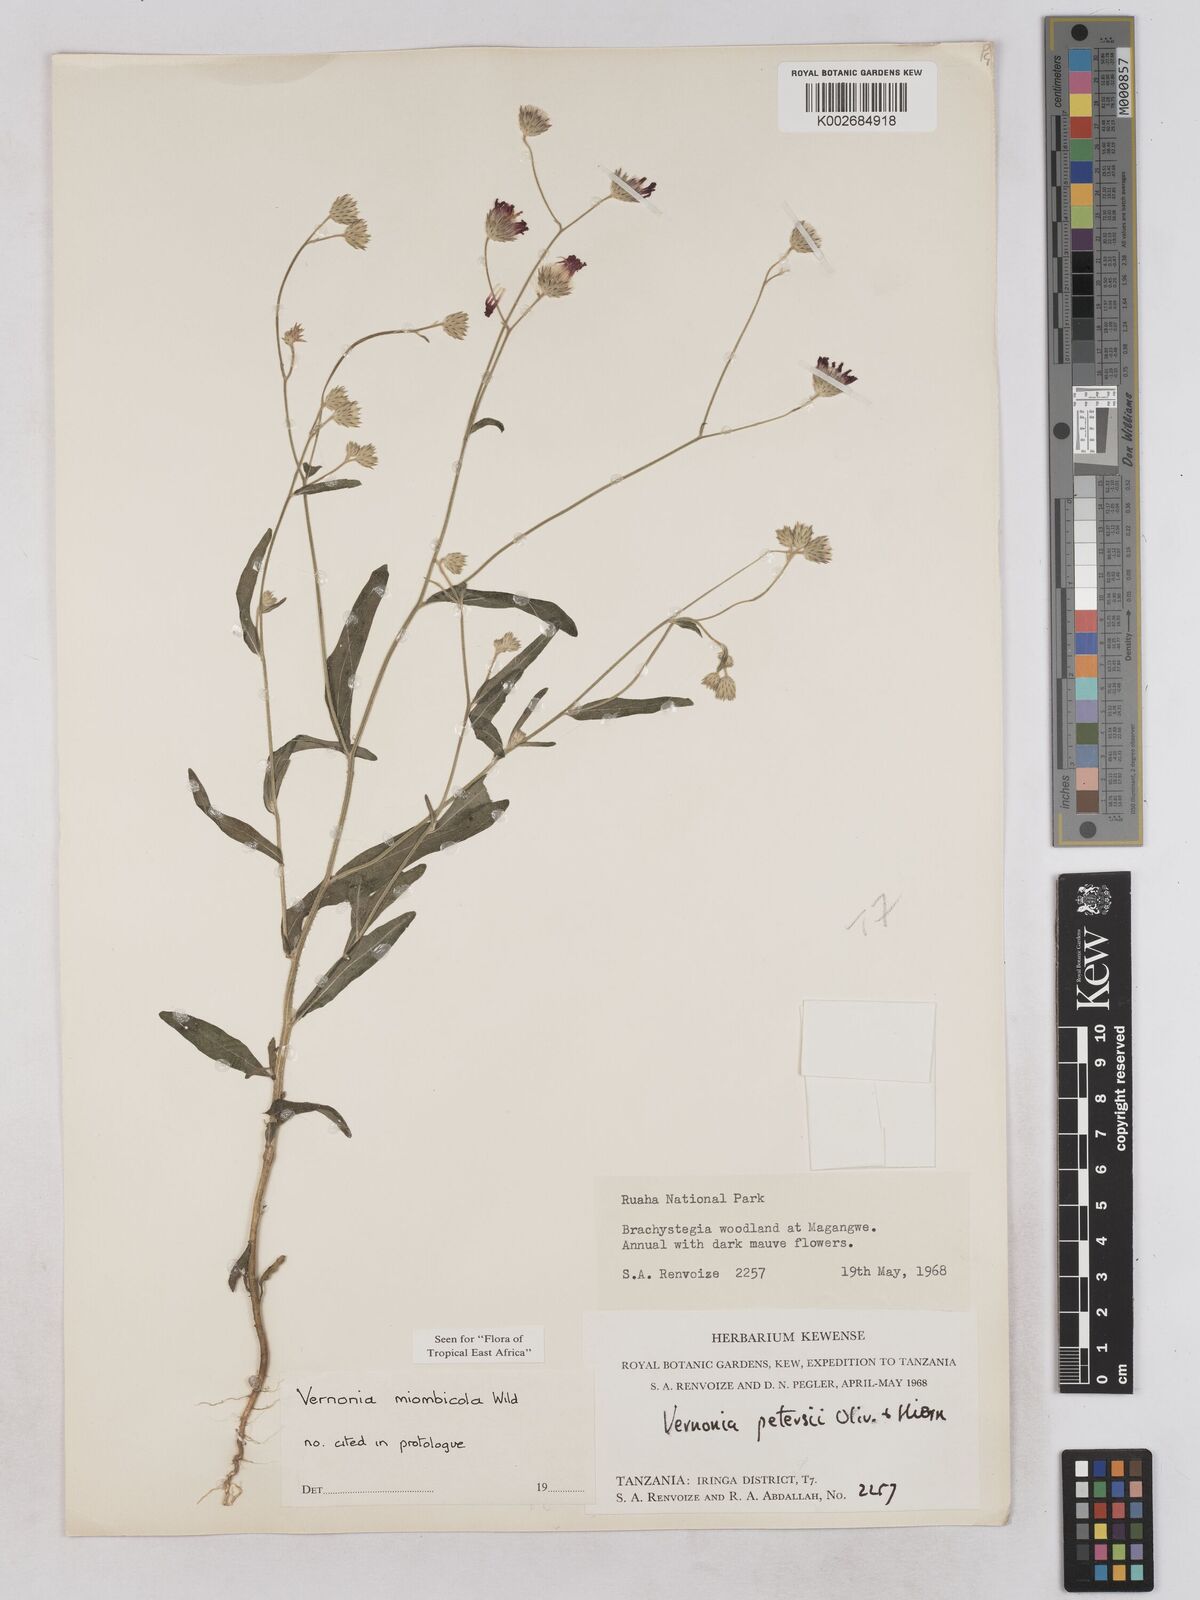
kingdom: Plantae
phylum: Tracheophyta
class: Magnoliopsida
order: Asterales
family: Asteraceae
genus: Vernonia
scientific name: Vernonia miombicola
